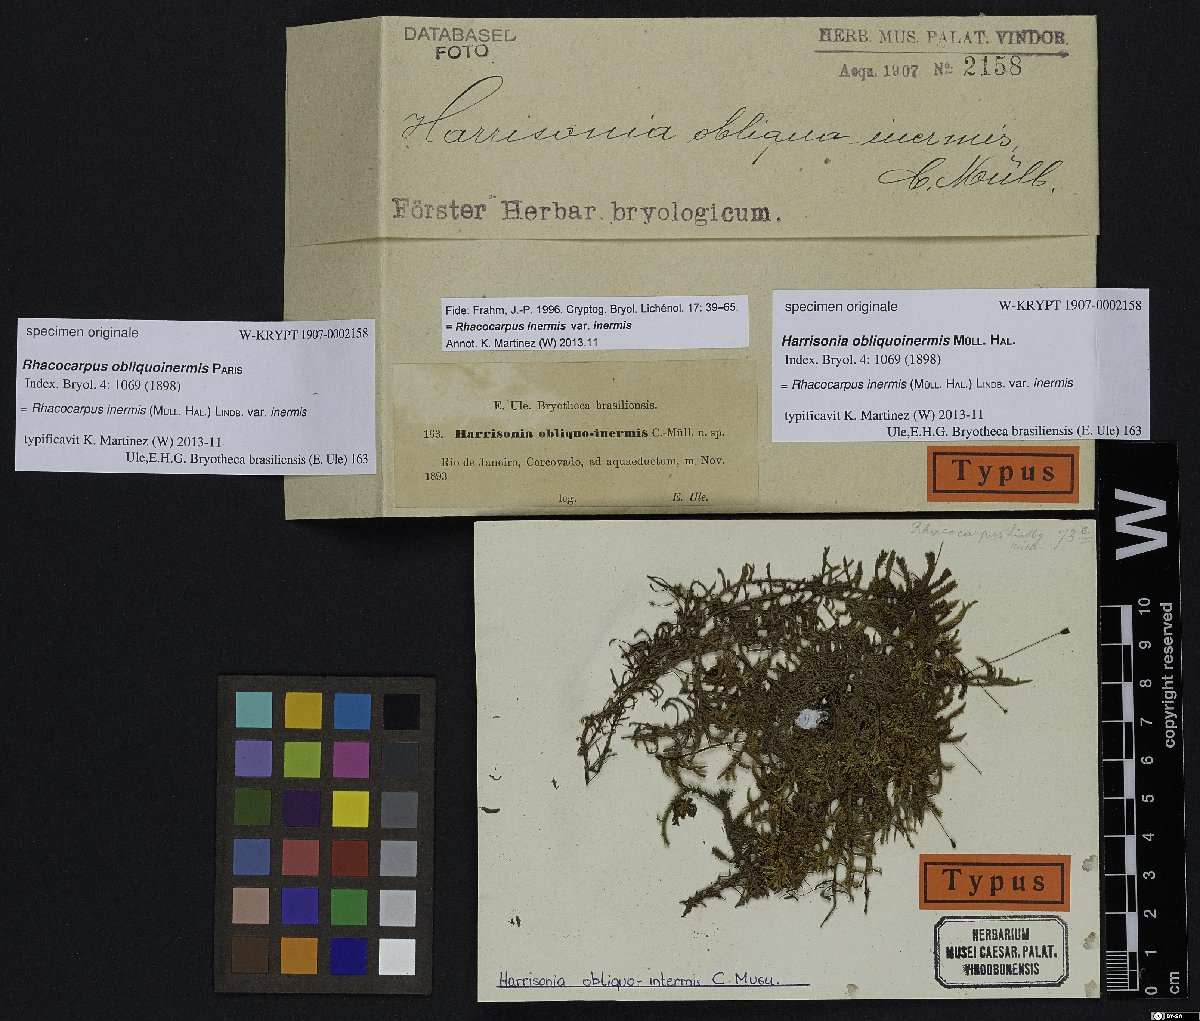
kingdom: Plantae
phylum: Tracheophyta
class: Magnoliopsida
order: Sapindales
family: Rutaceae
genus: Harrisonia
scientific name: Harrisonia
